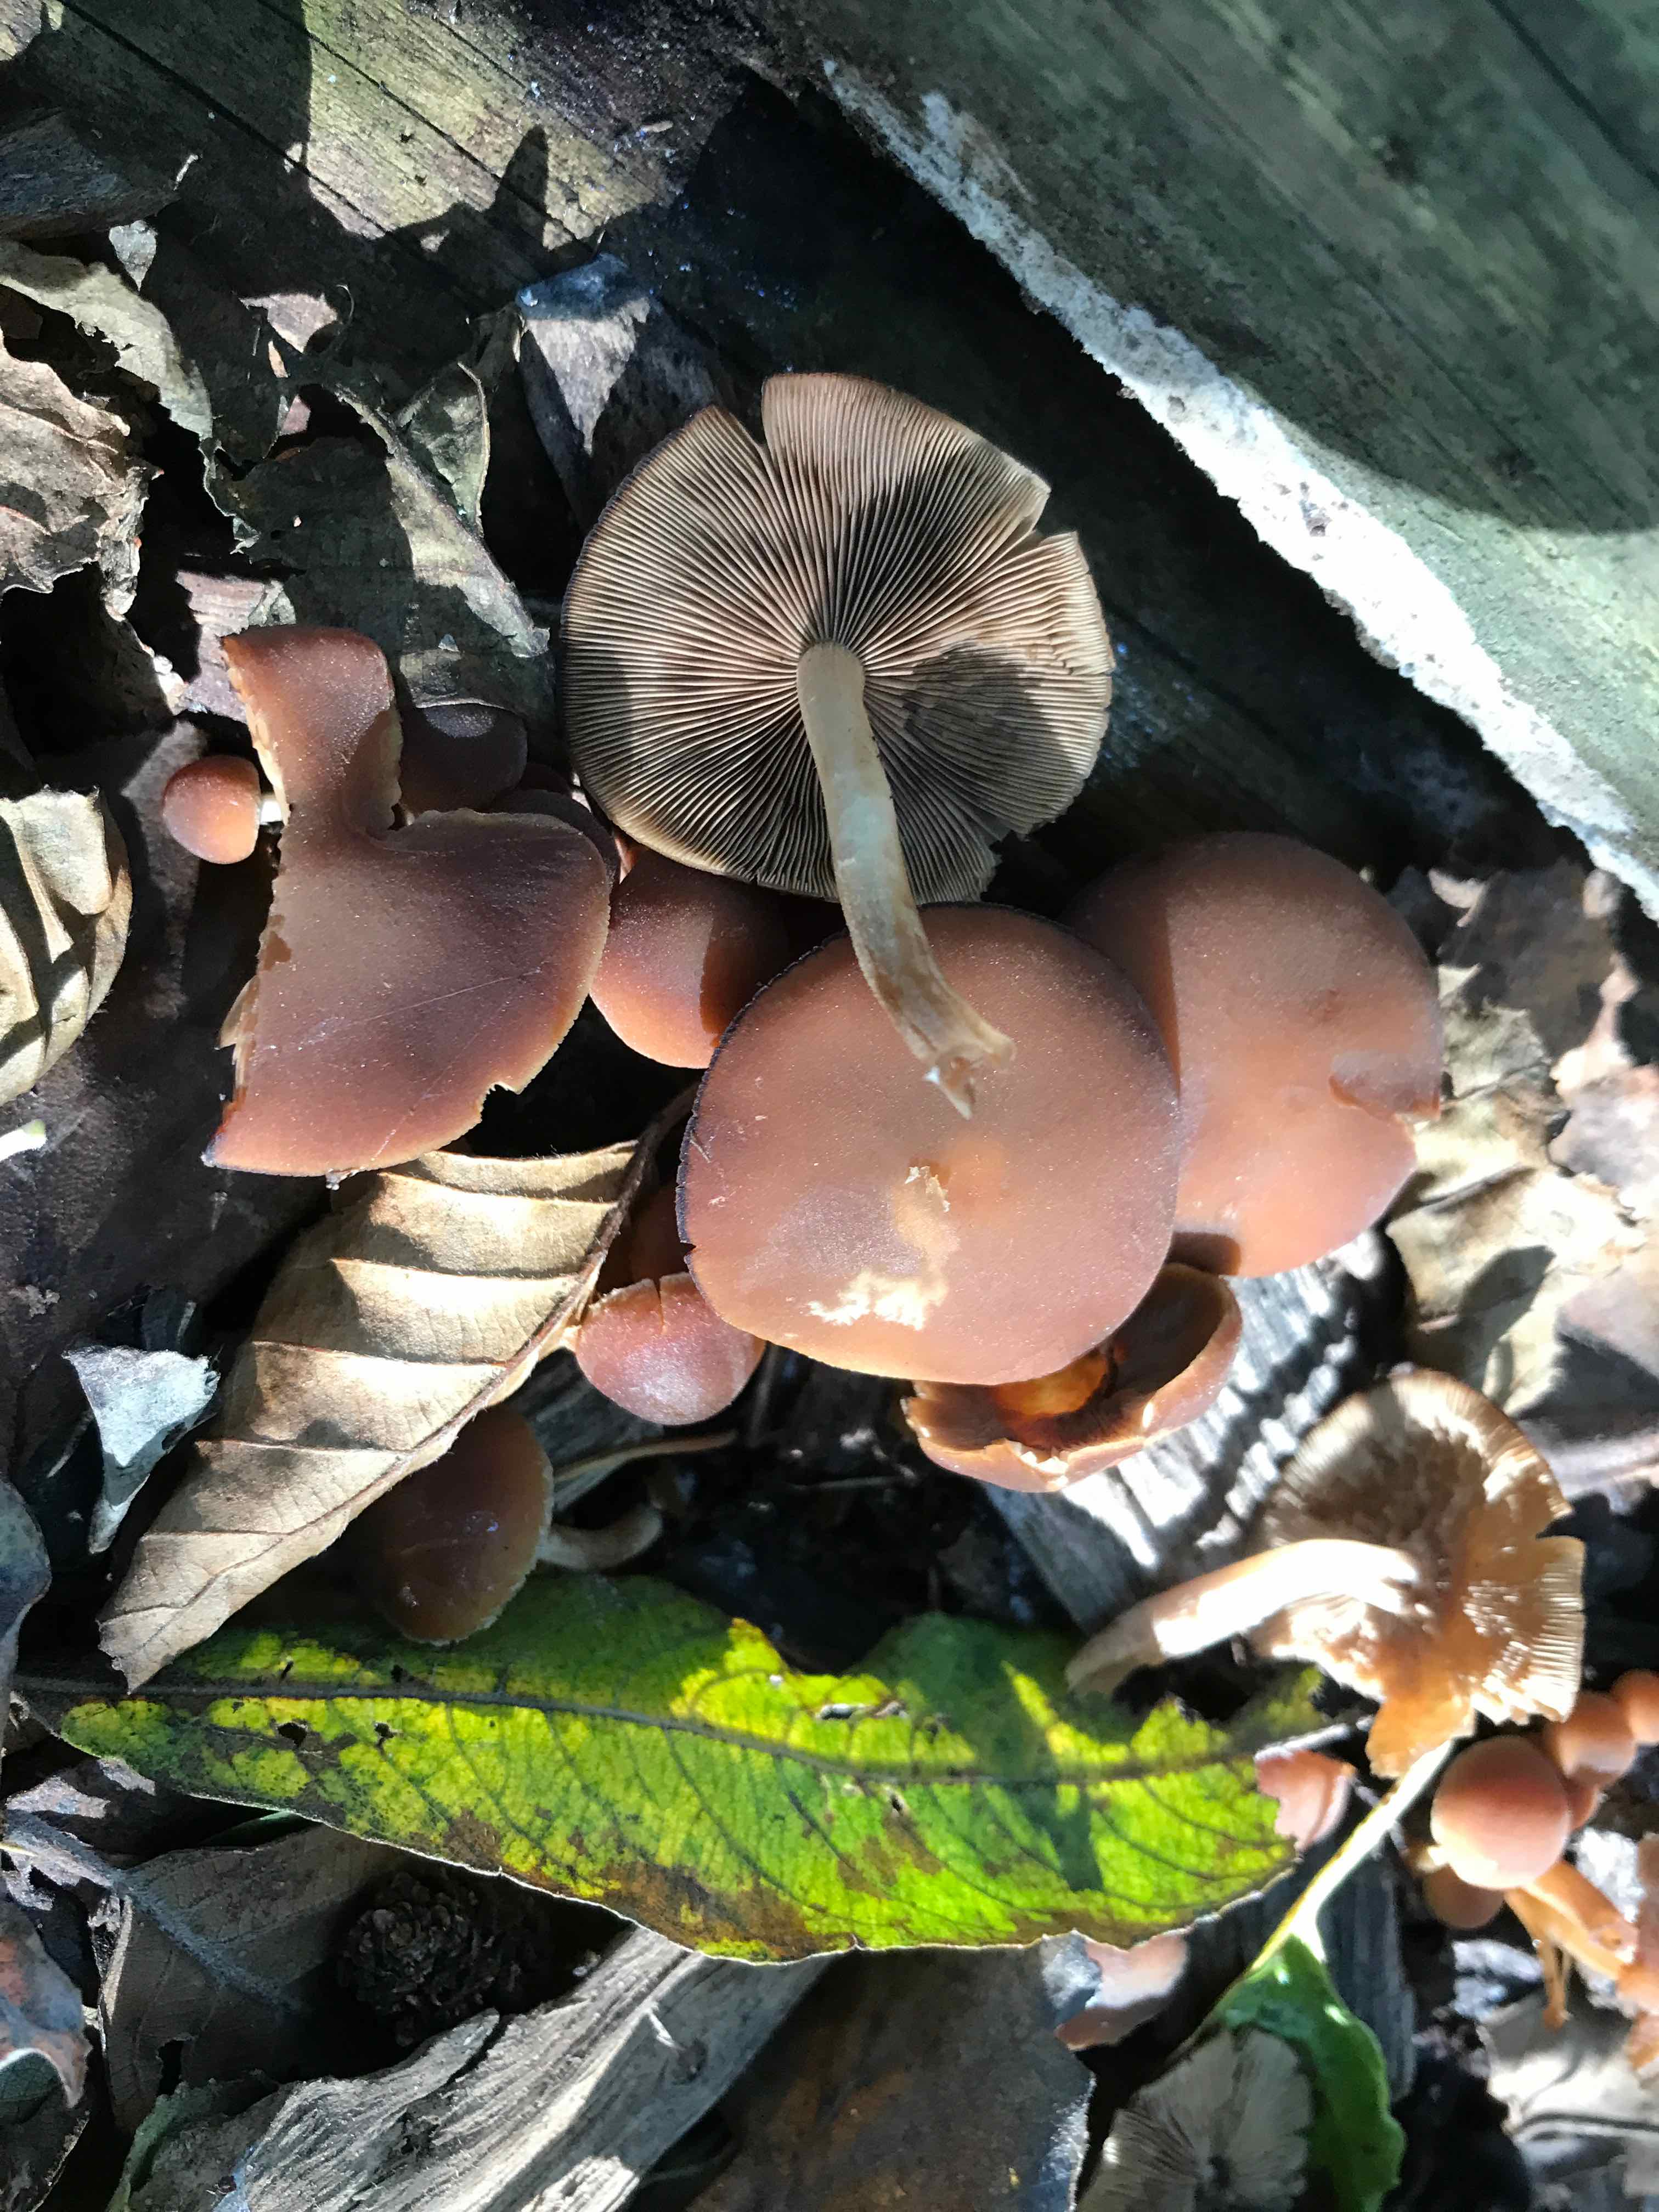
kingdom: Fungi
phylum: Basidiomycota
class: Agaricomycetes
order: Agaricales
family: Psathyrellaceae
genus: Psathyrella
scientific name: Psathyrella piluliformis
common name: lysstokket mørkhat
